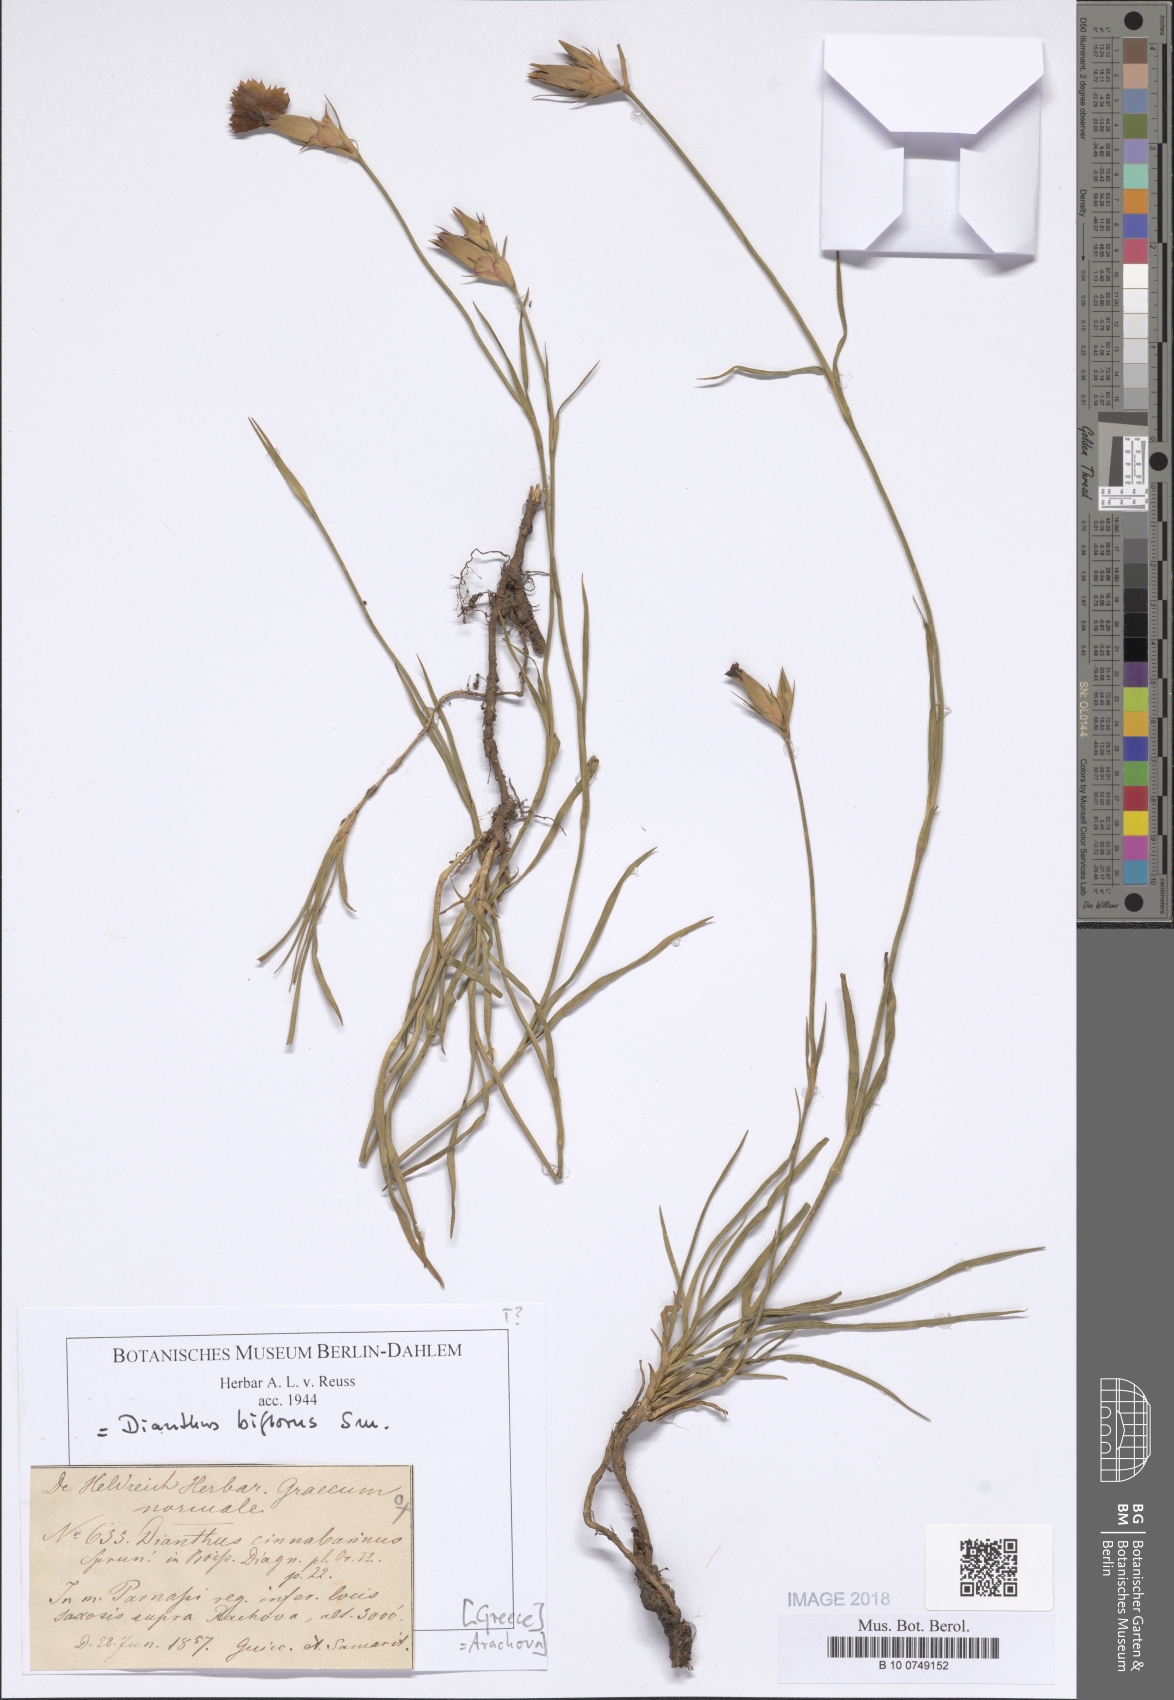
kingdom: Plantae
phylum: Tracheophyta
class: Magnoliopsida
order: Caryophyllales
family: Caryophyllaceae
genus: Dianthus
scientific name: Dianthus biflorus
